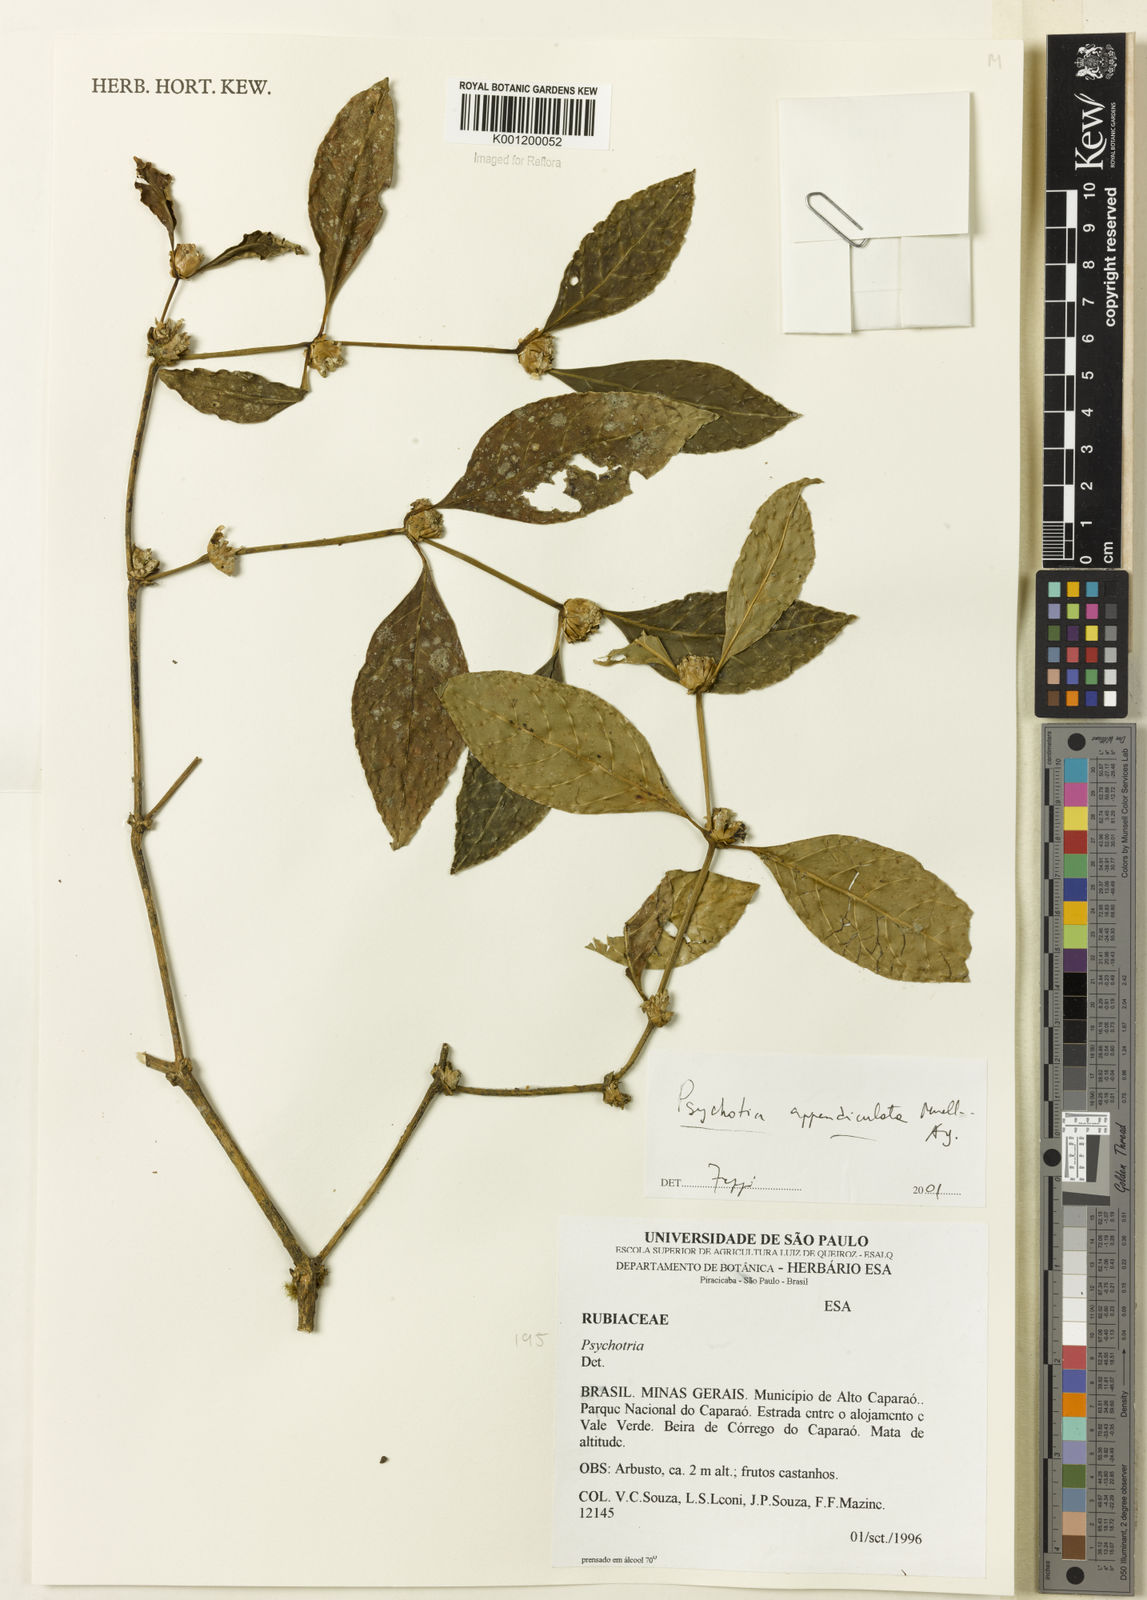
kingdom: Plantae
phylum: Tracheophyta
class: Magnoliopsida
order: Gentianales
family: Rubiaceae
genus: Psychotria
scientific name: Psychotria
